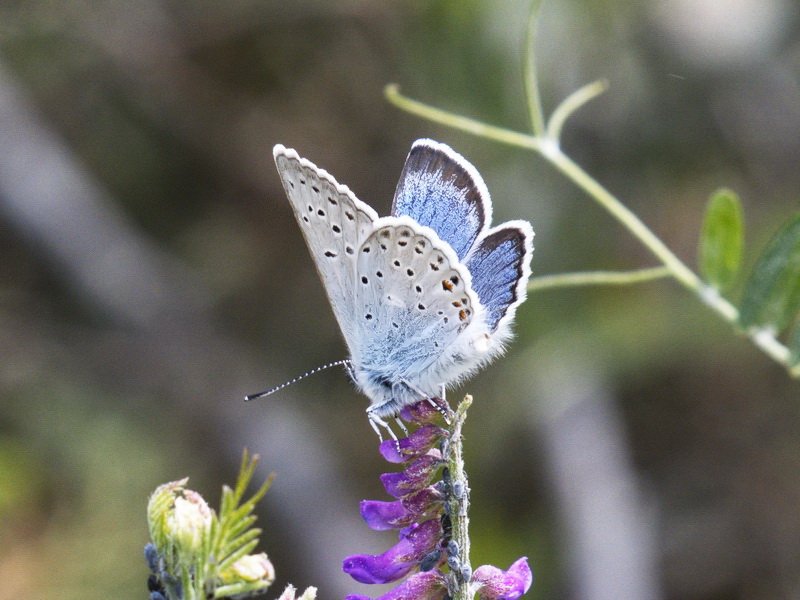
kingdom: Animalia
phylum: Arthropoda
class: Insecta
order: Lepidoptera
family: Lycaenidae
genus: Plebejus
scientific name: Plebejus saepiolus
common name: Greenish Blue
